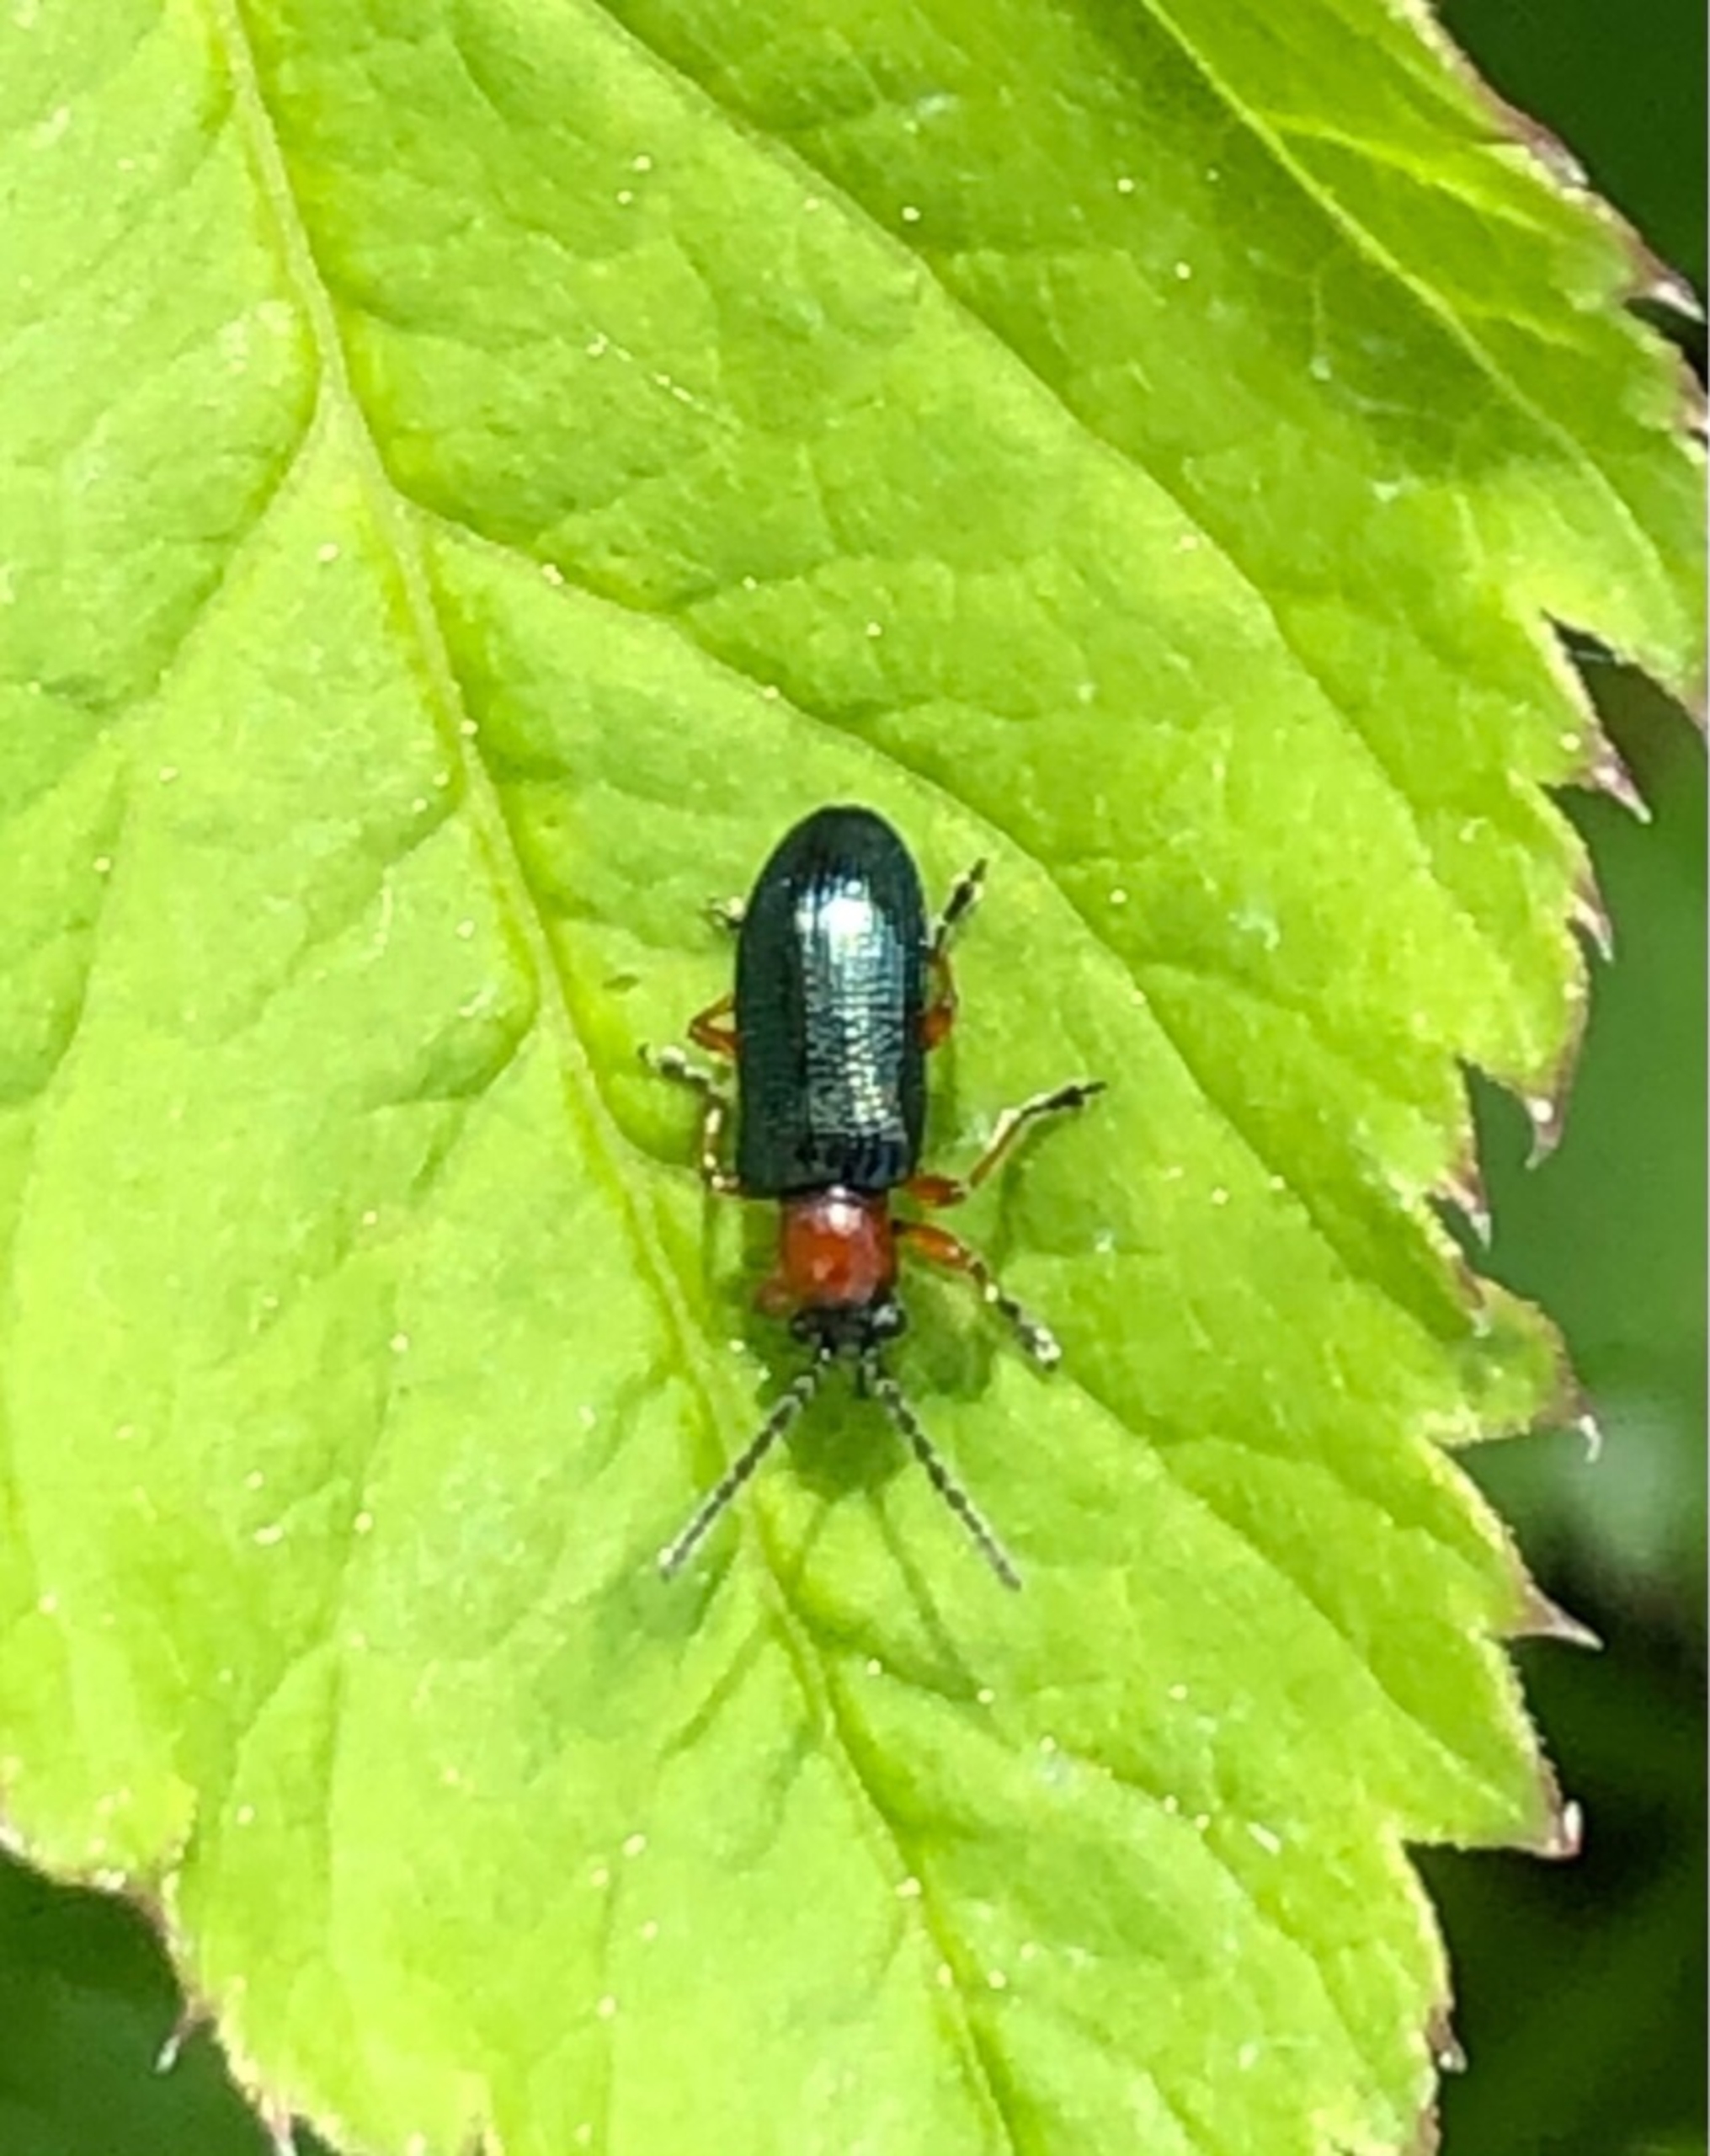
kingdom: Animalia
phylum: Arthropoda
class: Insecta
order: Coleoptera
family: Chrysomelidae
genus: Oulema
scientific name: Oulema
